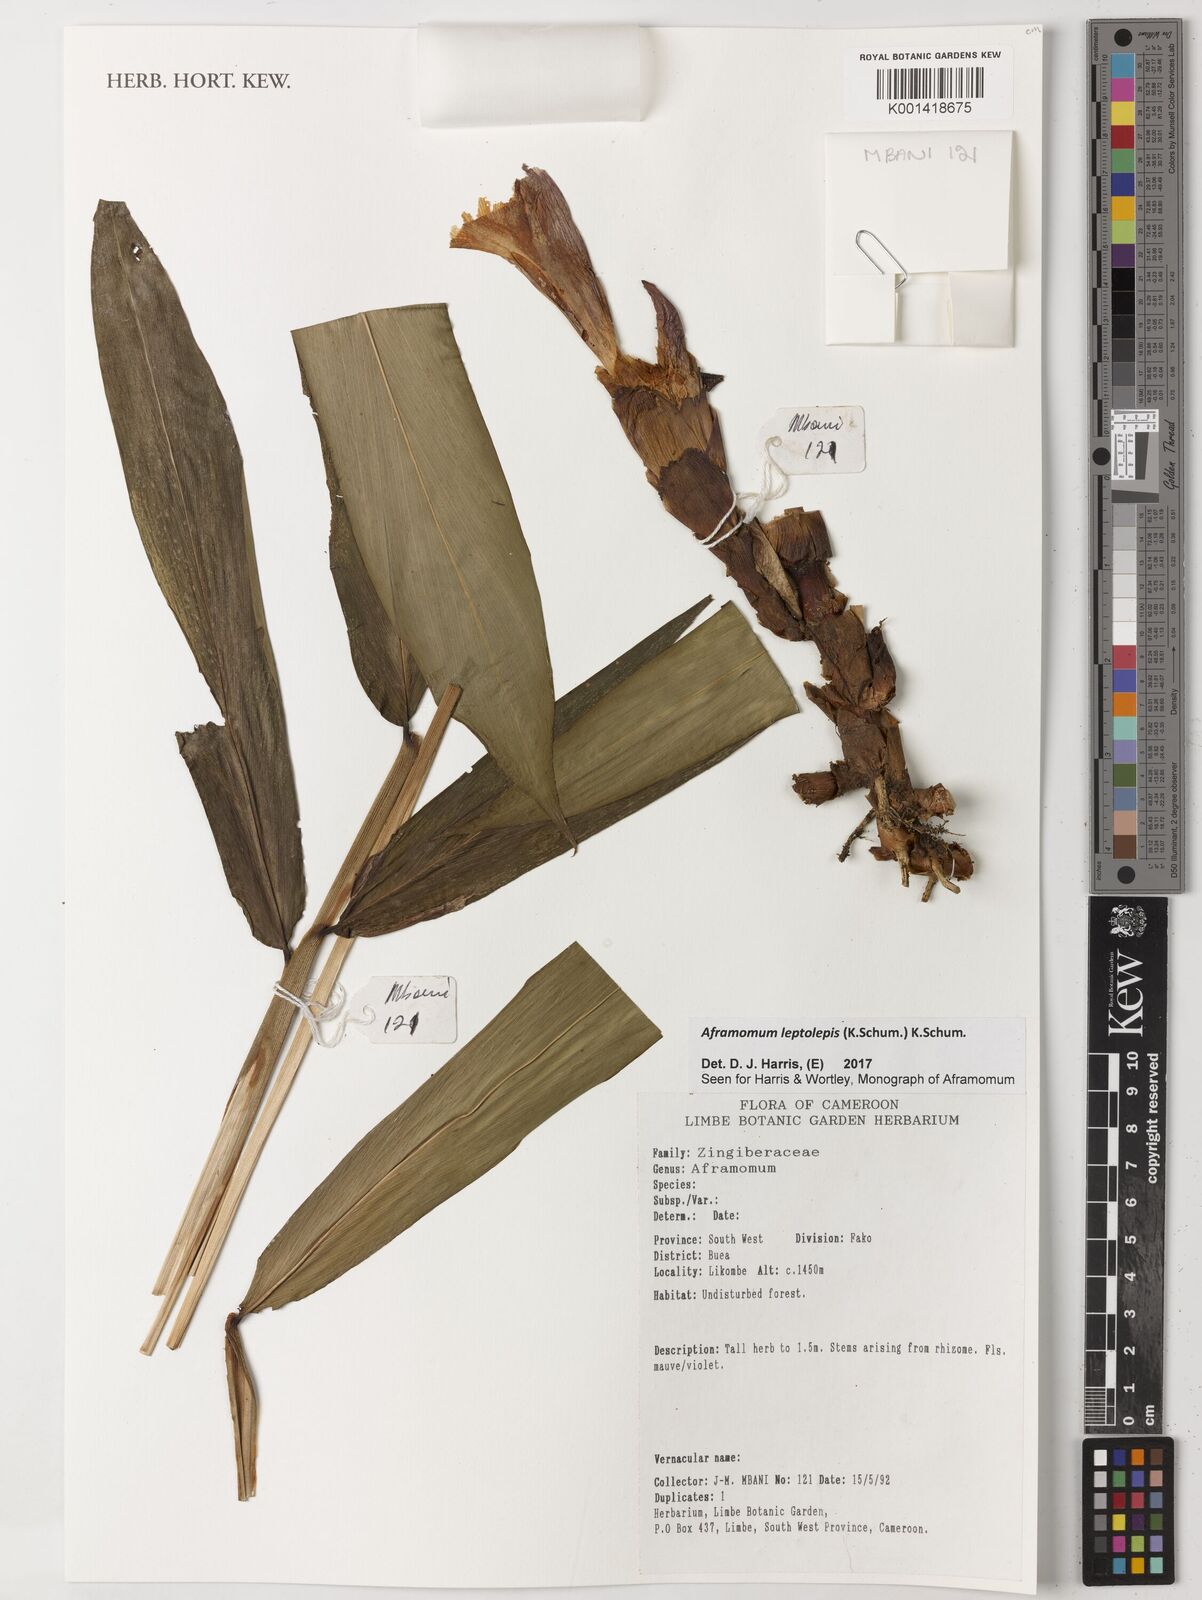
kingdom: Plantae
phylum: Tracheophyta
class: Liliopsida
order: Zingiberales
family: Zingiberaceae
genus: Aframomum
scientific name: Aframomum leptolepis
